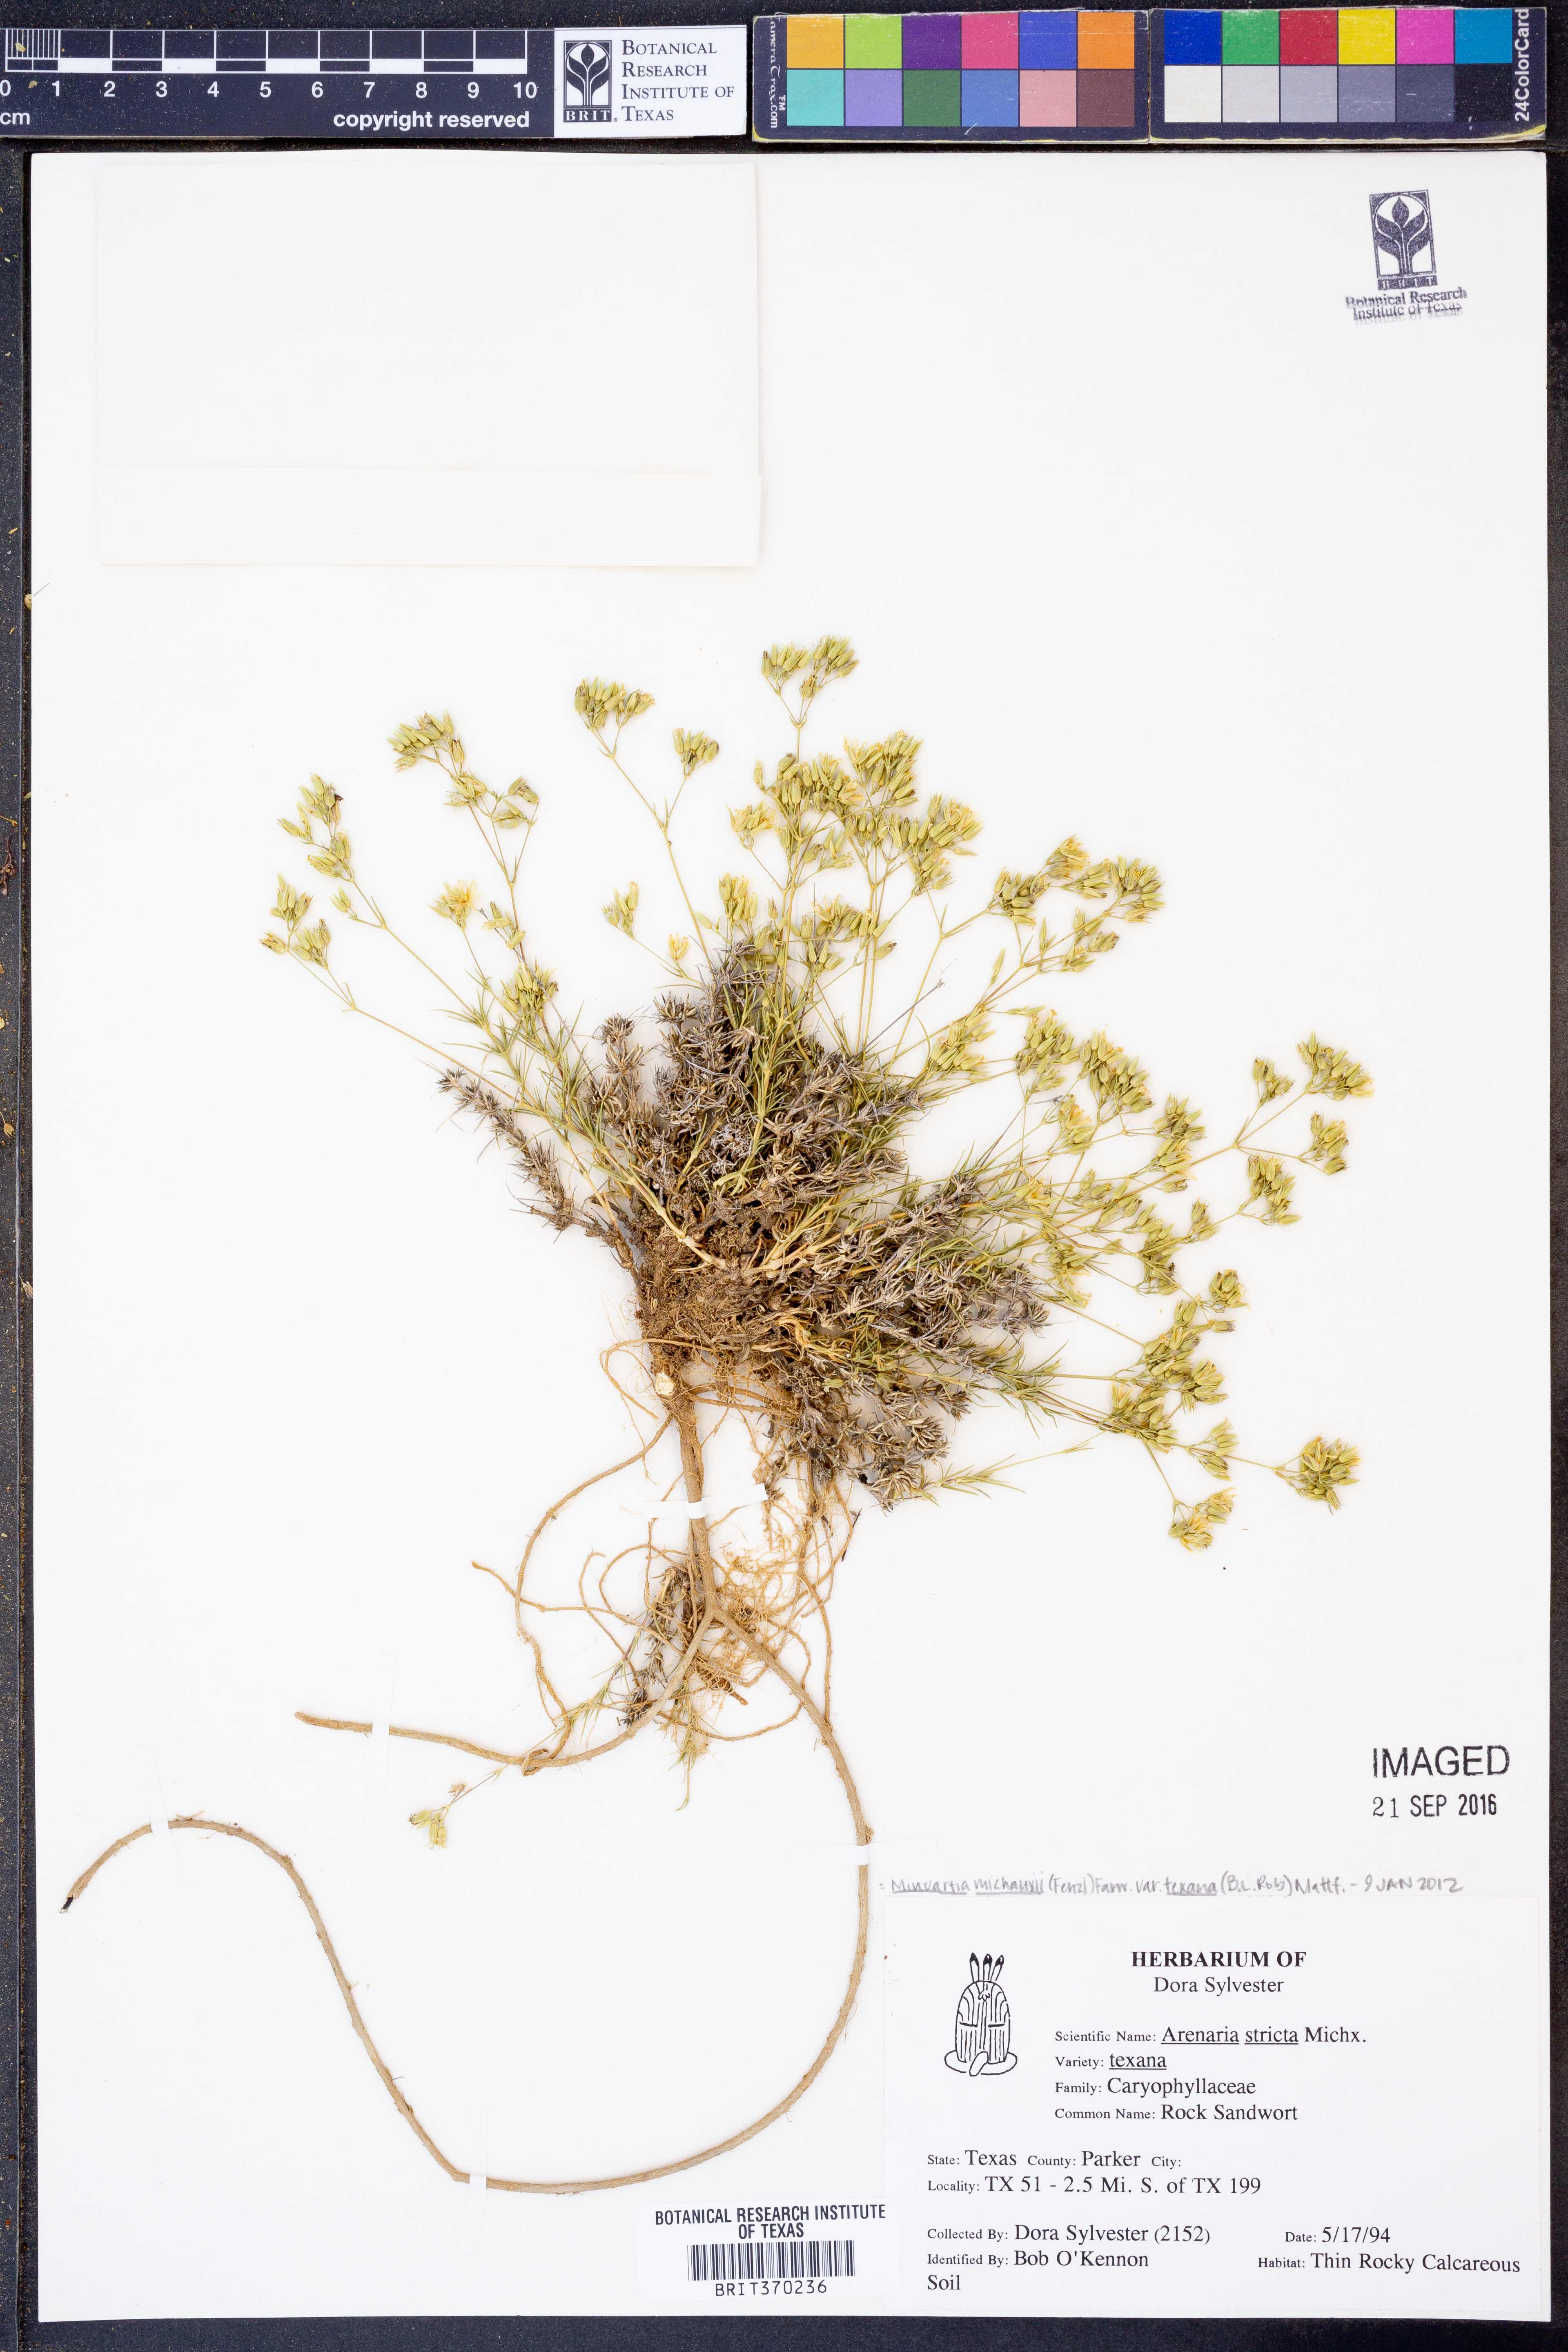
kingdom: Plantae
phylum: Tracheophyta
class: Magnoliopsida
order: Caryophyllales
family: Caryophyllaceae
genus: Sabulina
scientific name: Sabulina texana
